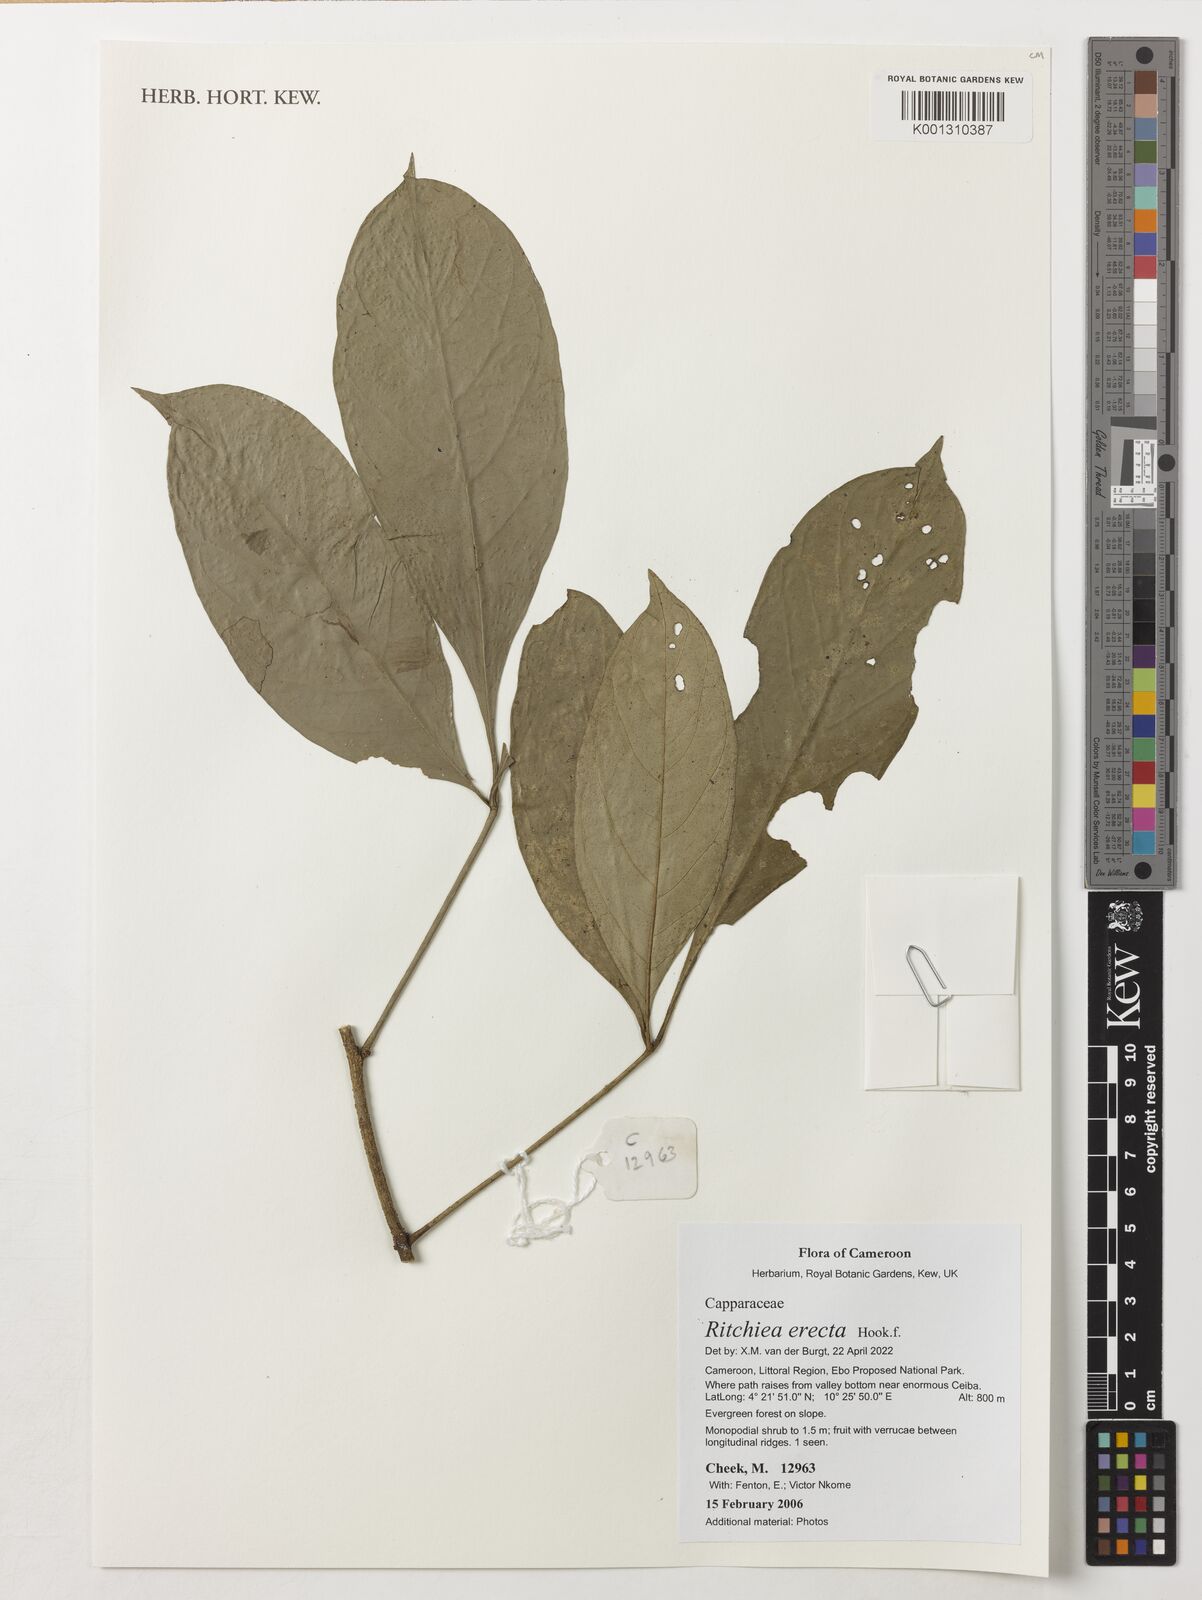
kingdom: Plantae
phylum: Tracheophyta
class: Magnoliopsida
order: Brassicales
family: Capparaceae
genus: Ritchiea
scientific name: Ritchiea erecta
